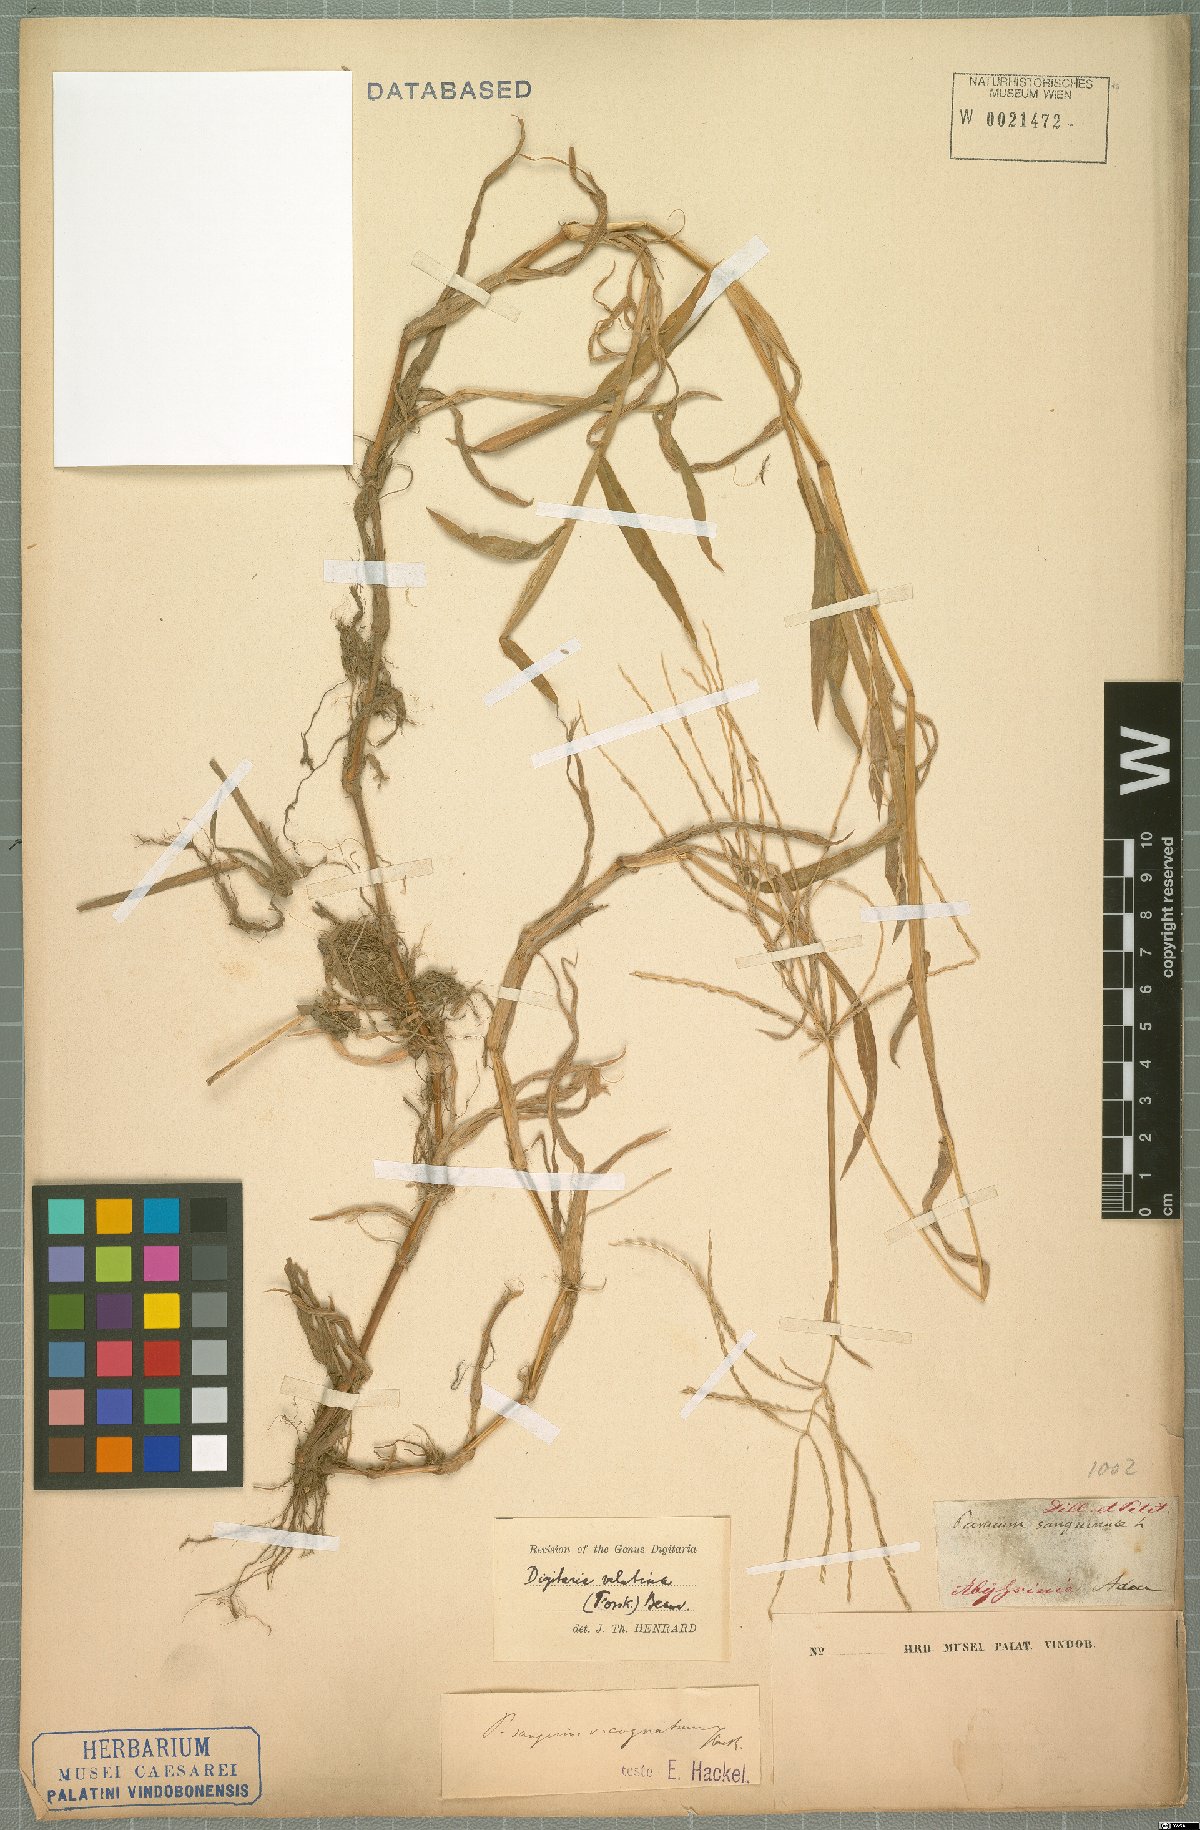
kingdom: Plantae
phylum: Tracheophyta
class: Liliopsida
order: Poales
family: Poaceae
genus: Digitaria
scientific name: Digitaria velutina
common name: Long-plume finger grass
